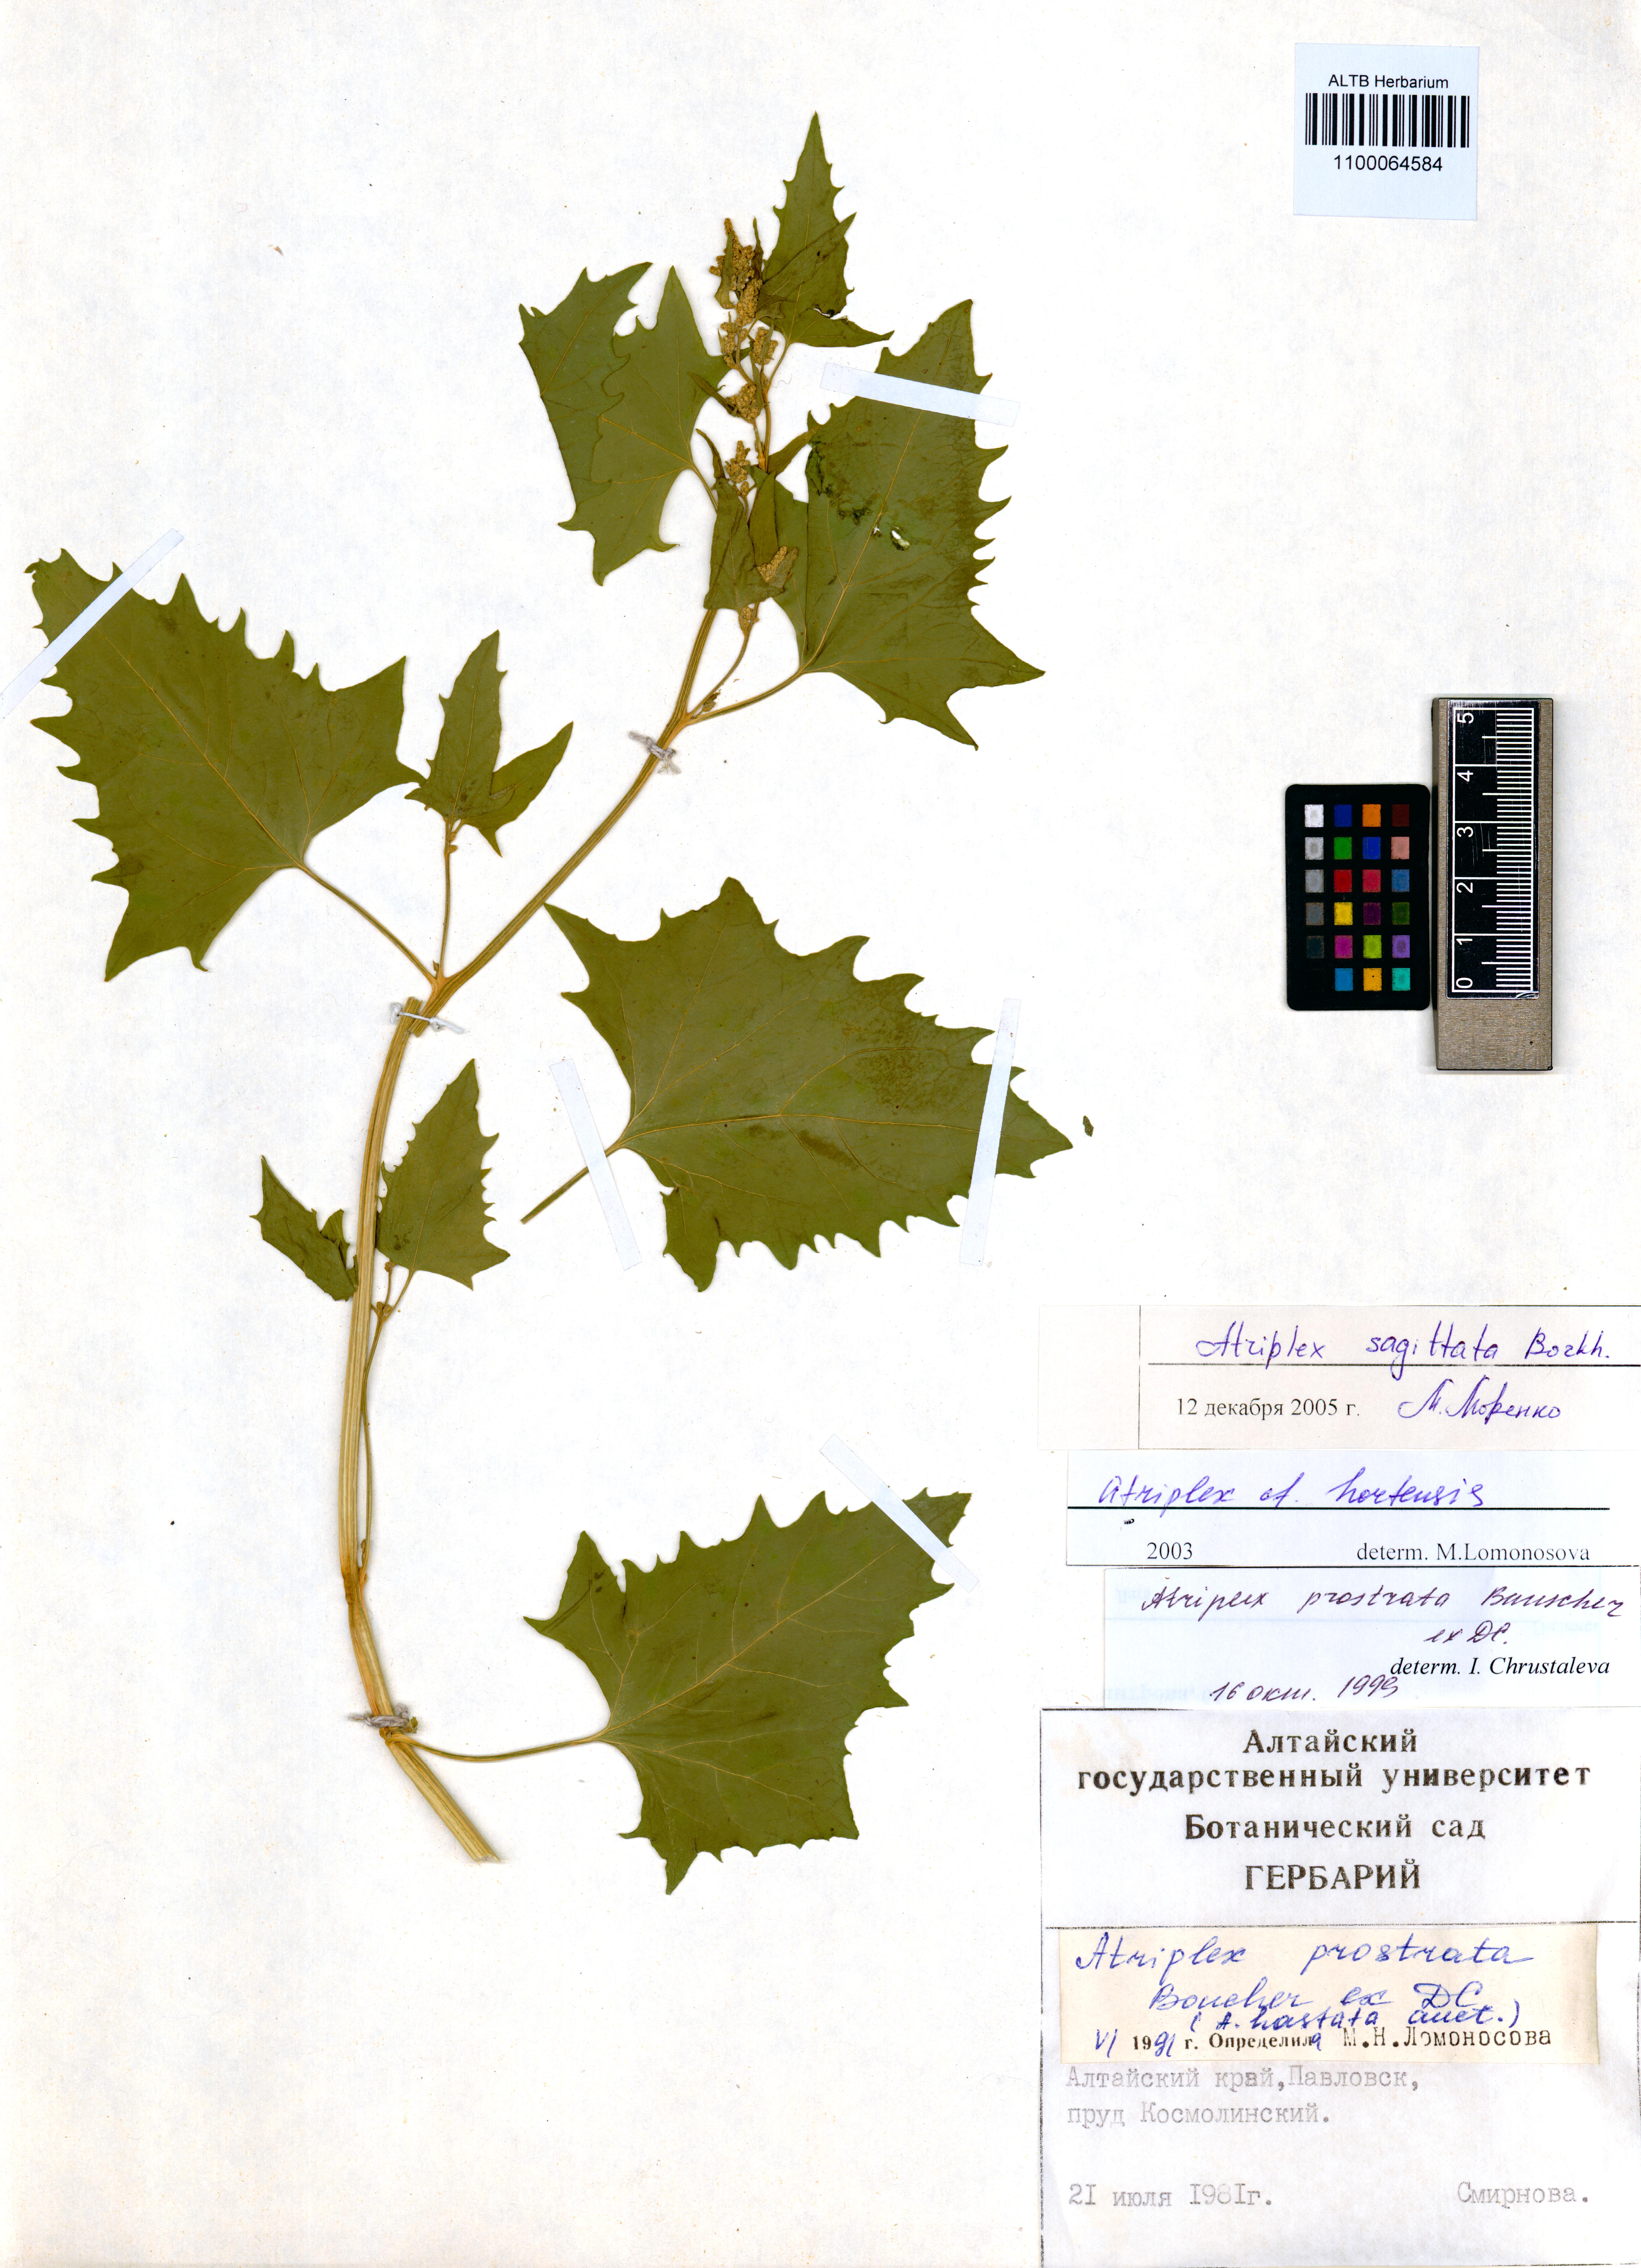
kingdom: Plantae
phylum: Tracheophyta
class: Magnoliopsida
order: Caryophyllales
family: Amaranthaceae
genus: Atriplex
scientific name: Atriplex sagittata
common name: Purple orache
